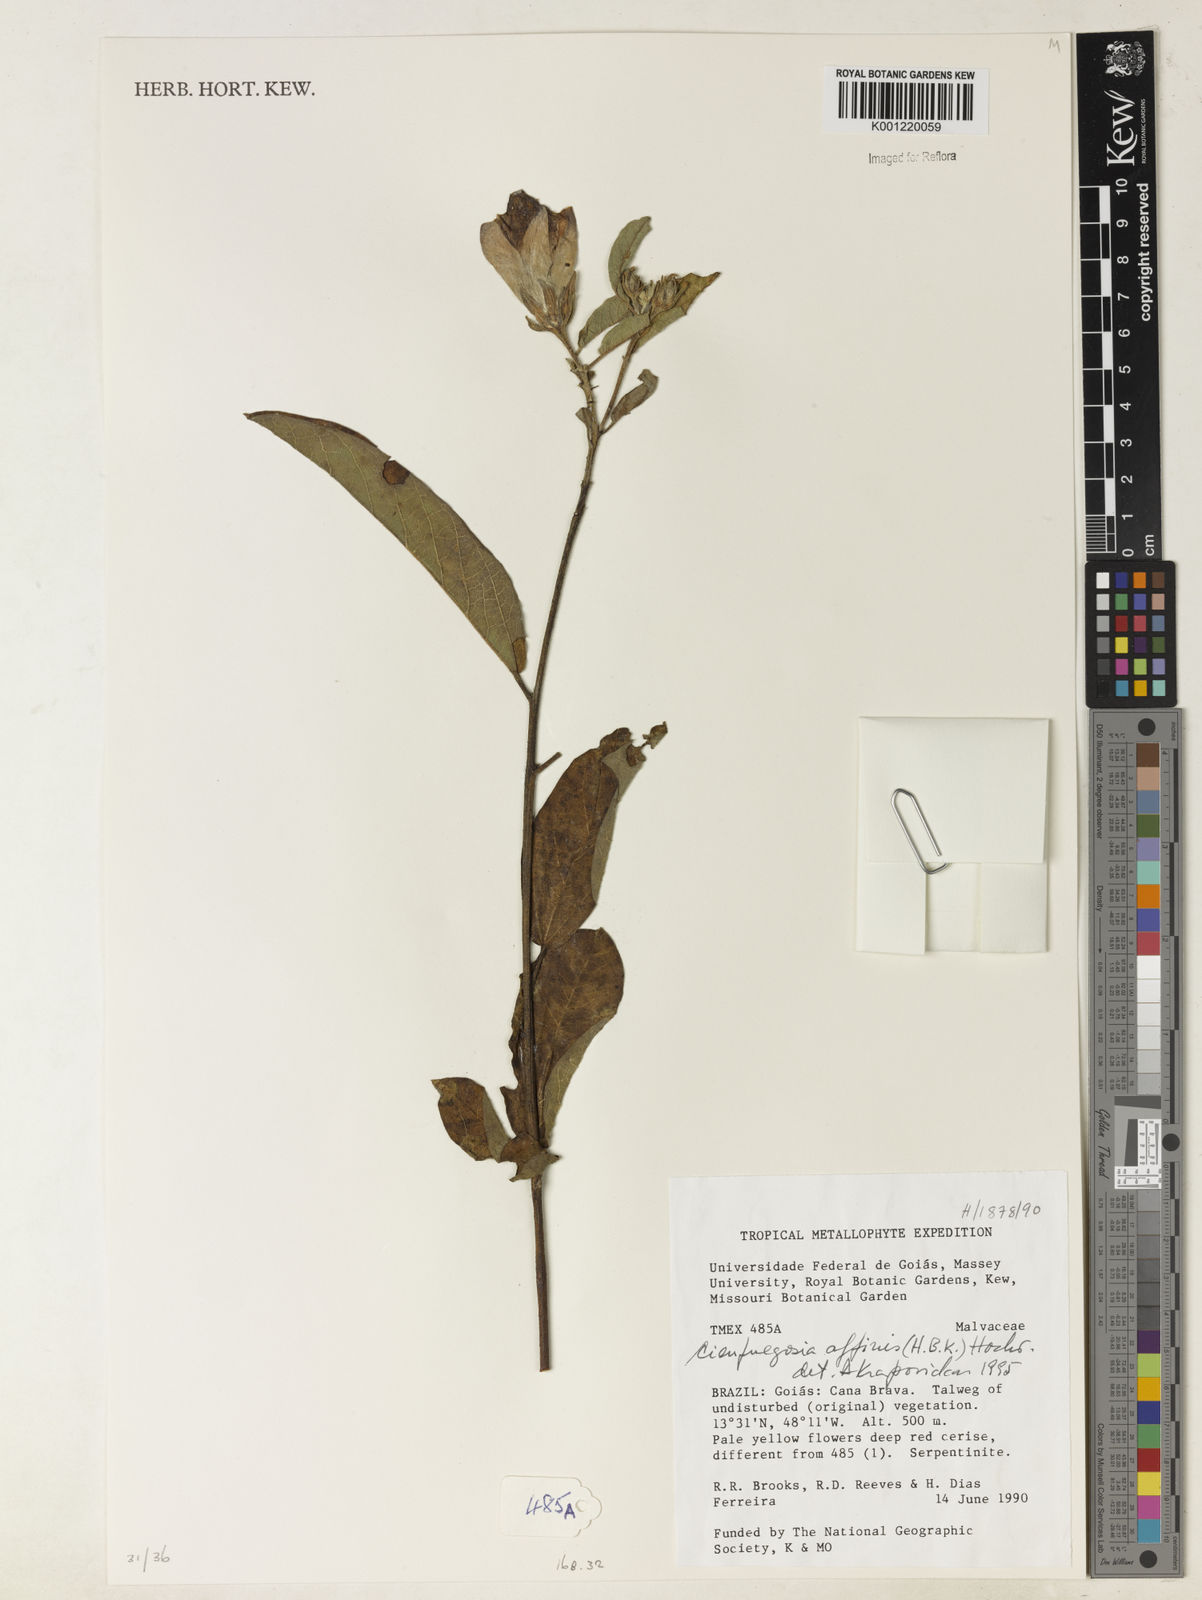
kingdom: Plantae
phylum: Tracheophyta
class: Magnoliopsida
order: Malvales
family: Malvaceae
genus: Cienfuegosia
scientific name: Cienfuegosia affinis
